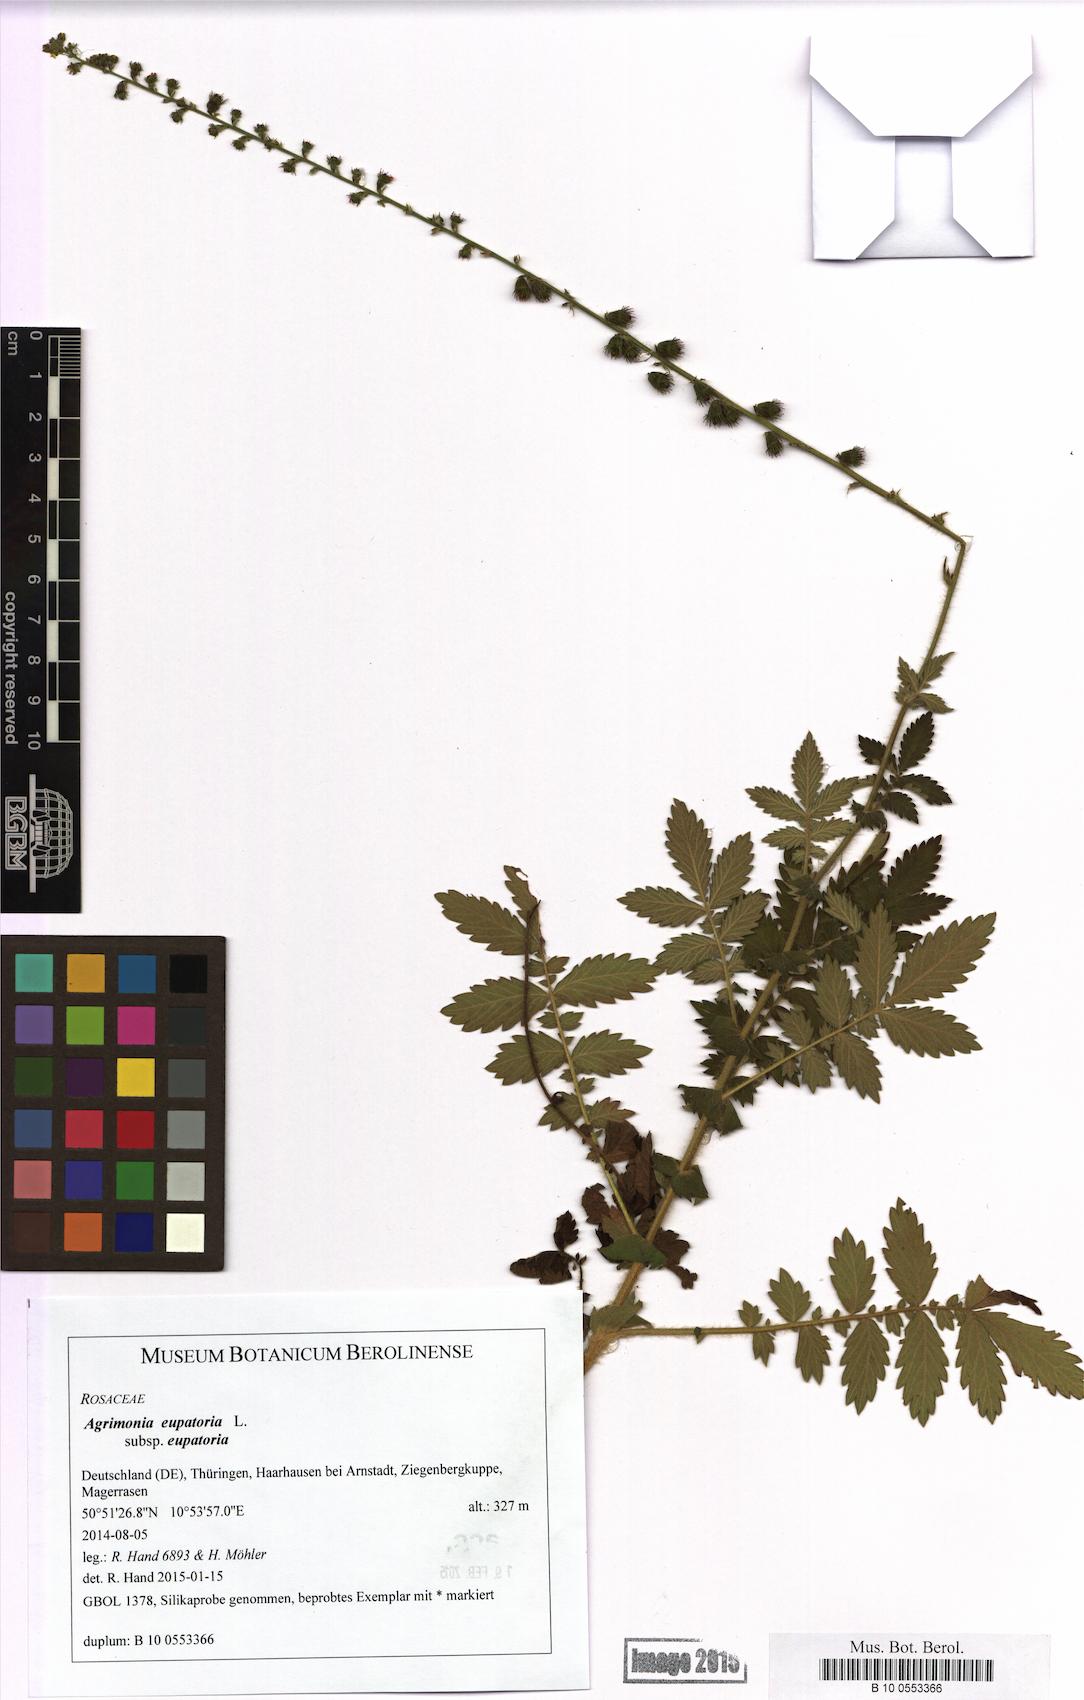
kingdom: Plantae
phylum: Tracheophyta
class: Magnoliopsida
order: Rosales
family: Rosaceae
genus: Agrimonia
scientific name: Agrimonia eupatoria
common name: Agrimony
